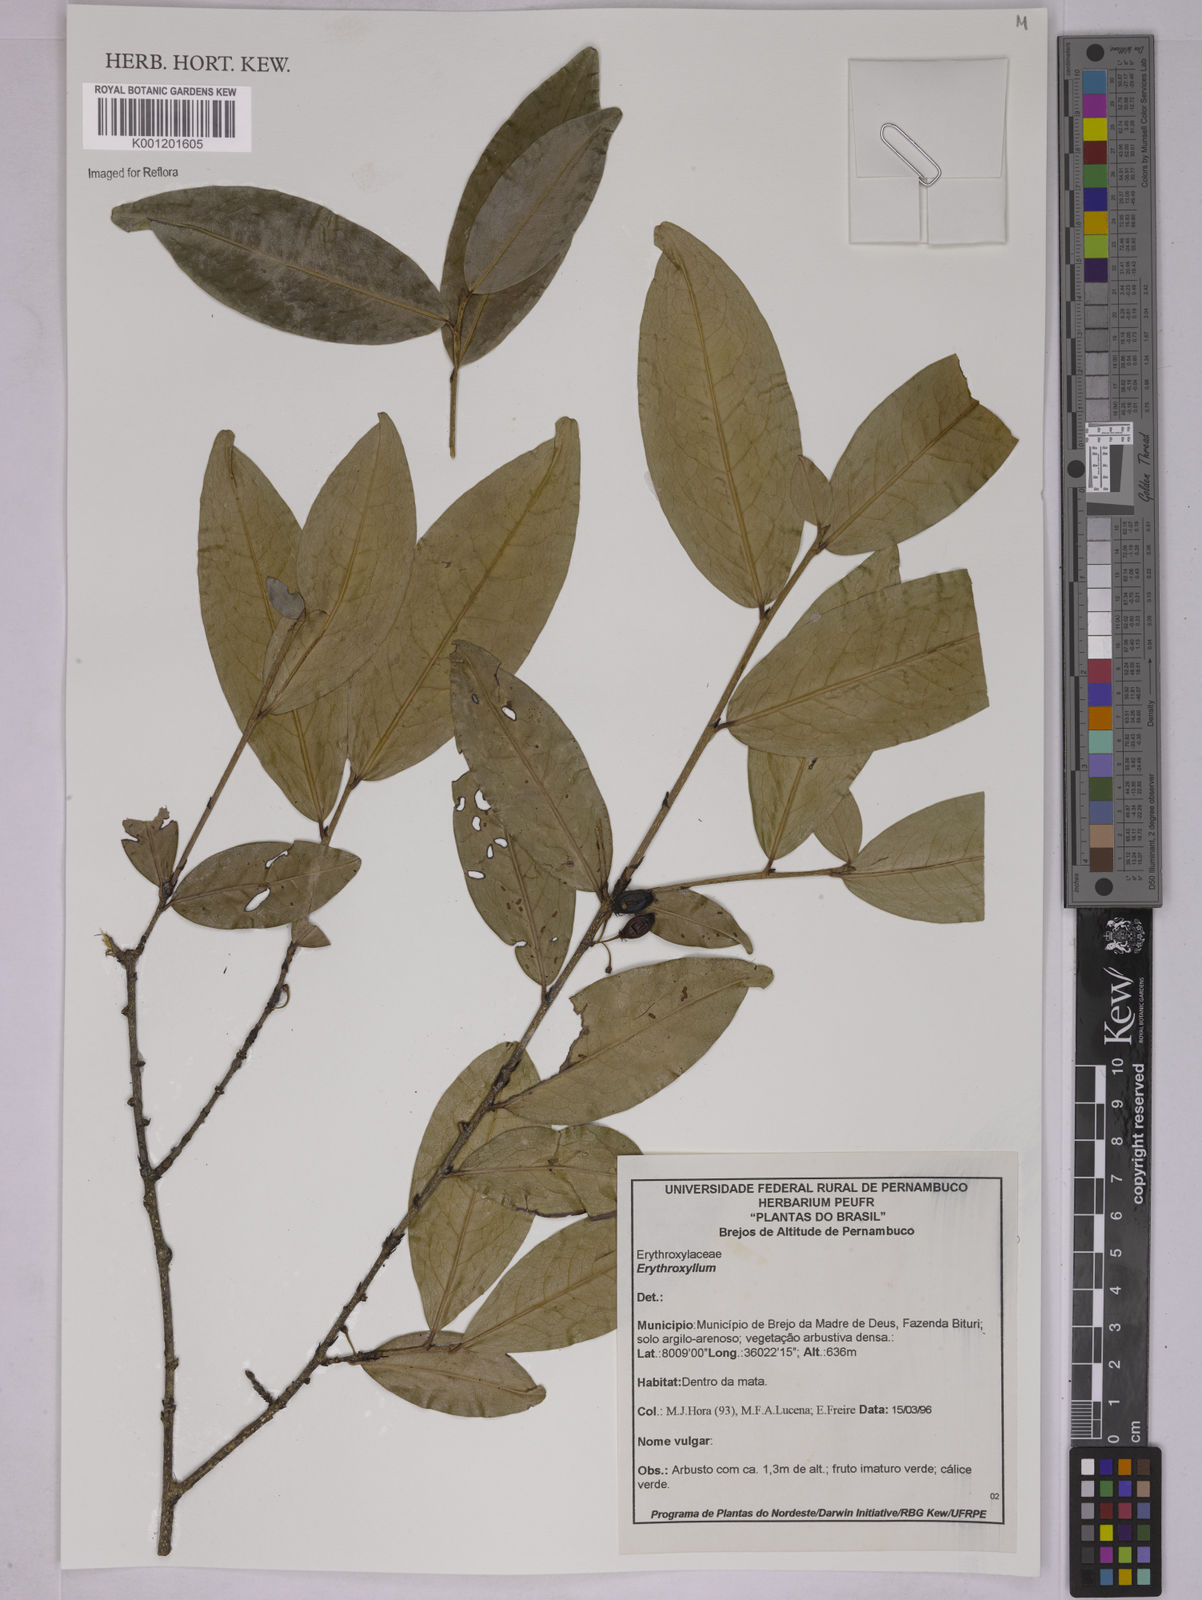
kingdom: Plantae
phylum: Tracheophyta
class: Magnoliopsida
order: Malpighiales
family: Erythroxylaceae
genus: Erythroxylum
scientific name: Erythroxylum
